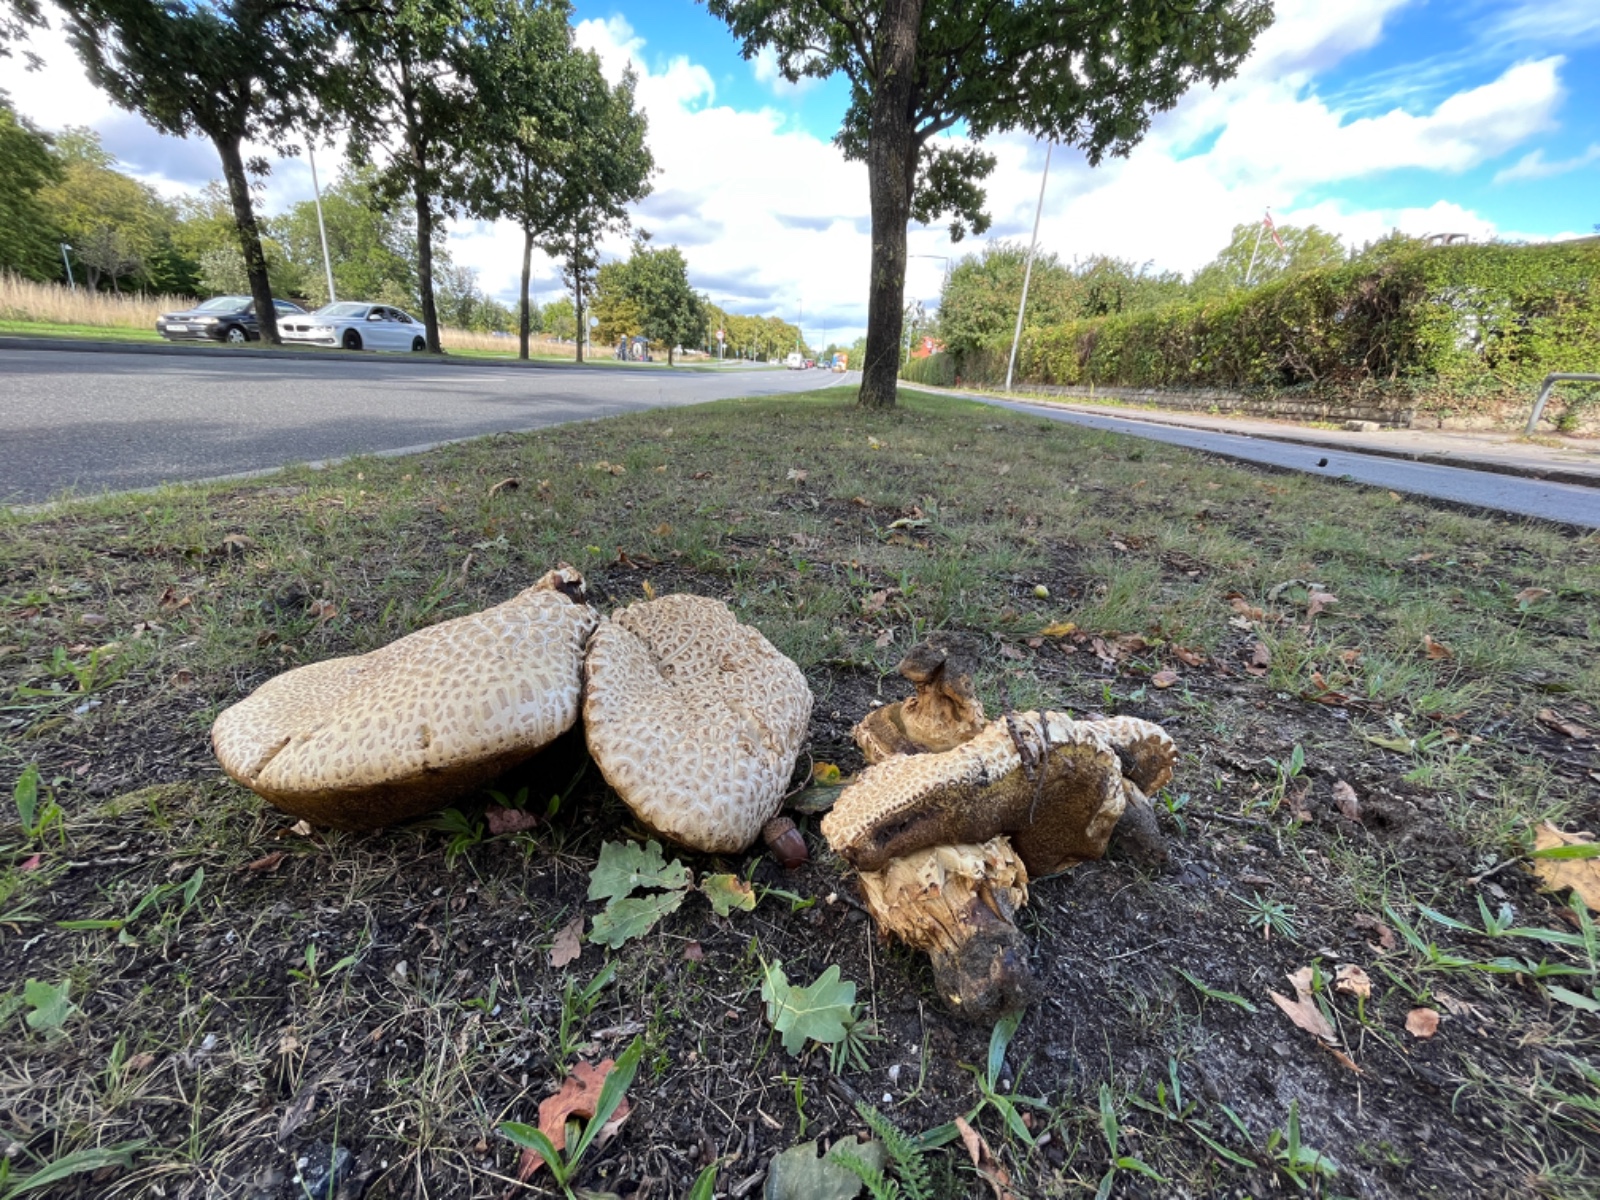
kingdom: Fungi
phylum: Basidiomycota
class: Agaricomycetes
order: Boletales
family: Boletaceae
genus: Caloboletus
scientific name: Caloboletus radicans
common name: rod-rørhat
